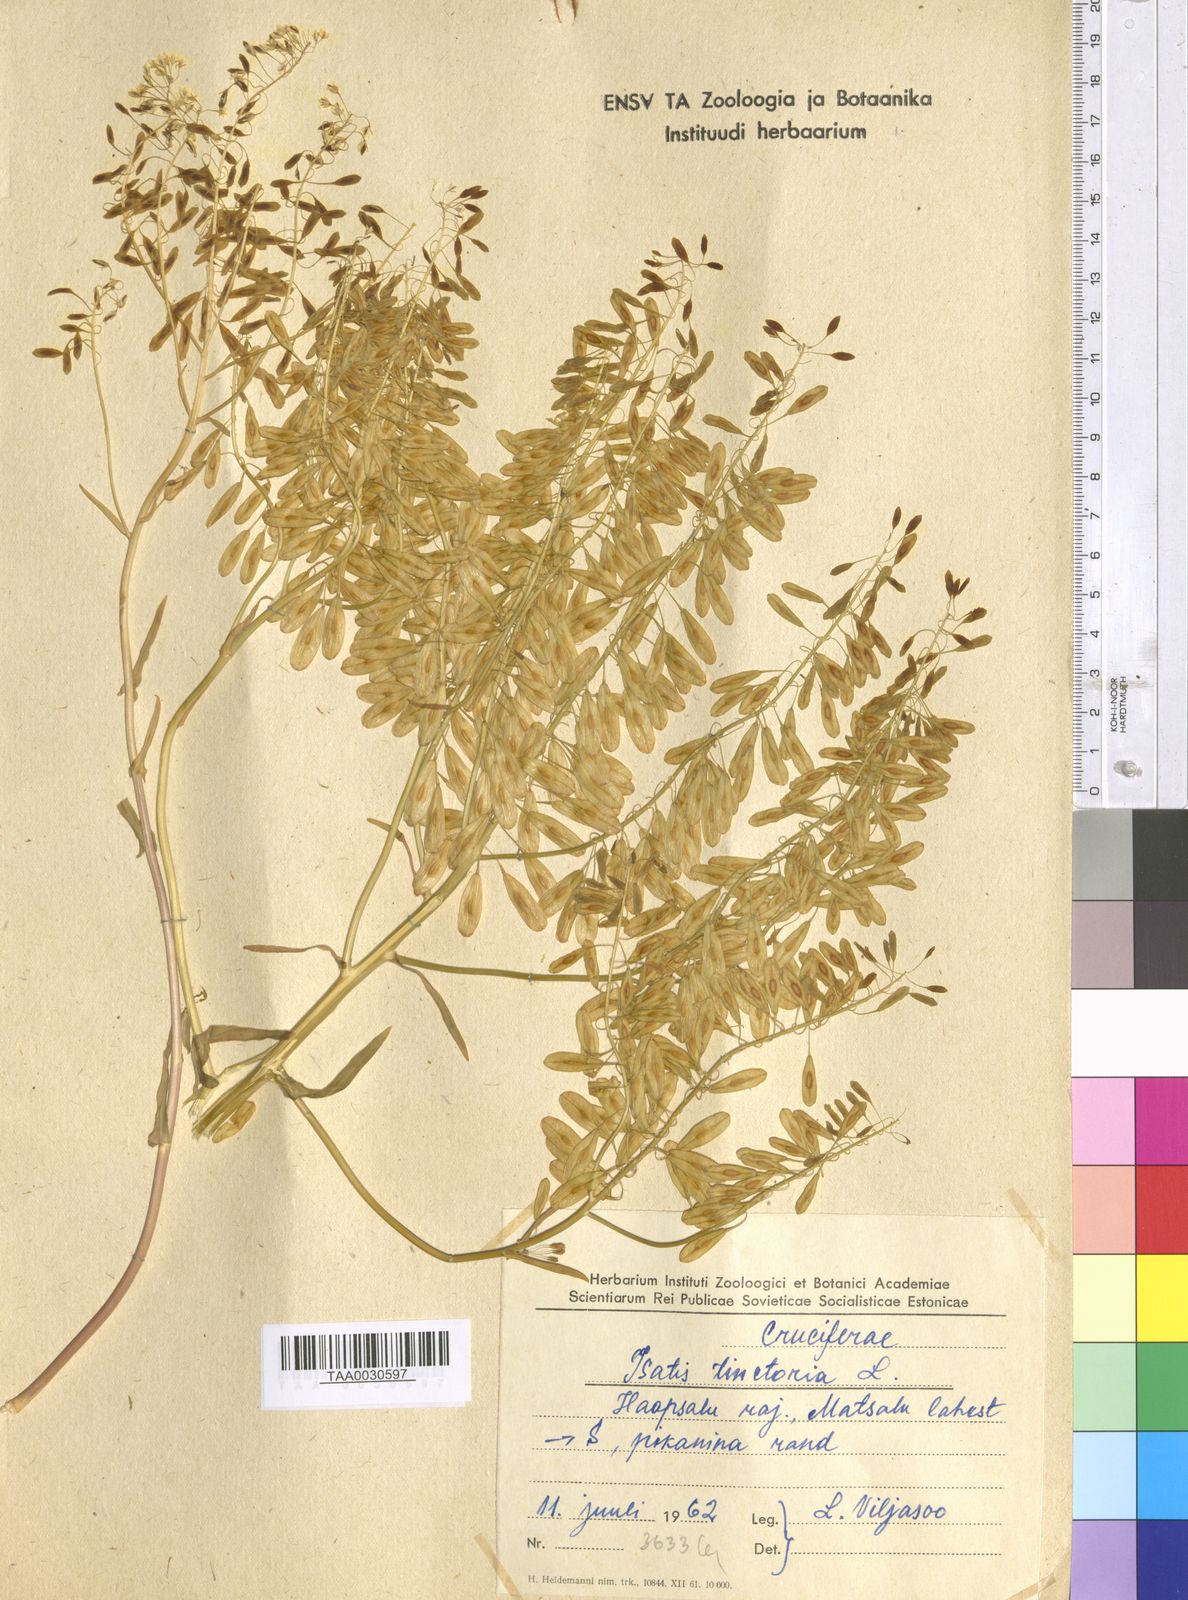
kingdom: Plantae
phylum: Tracheophyta
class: Magnoliopsida
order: Brassicales
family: Brassicaceae
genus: Isatis
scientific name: Isatis tinctoria
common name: Woad
